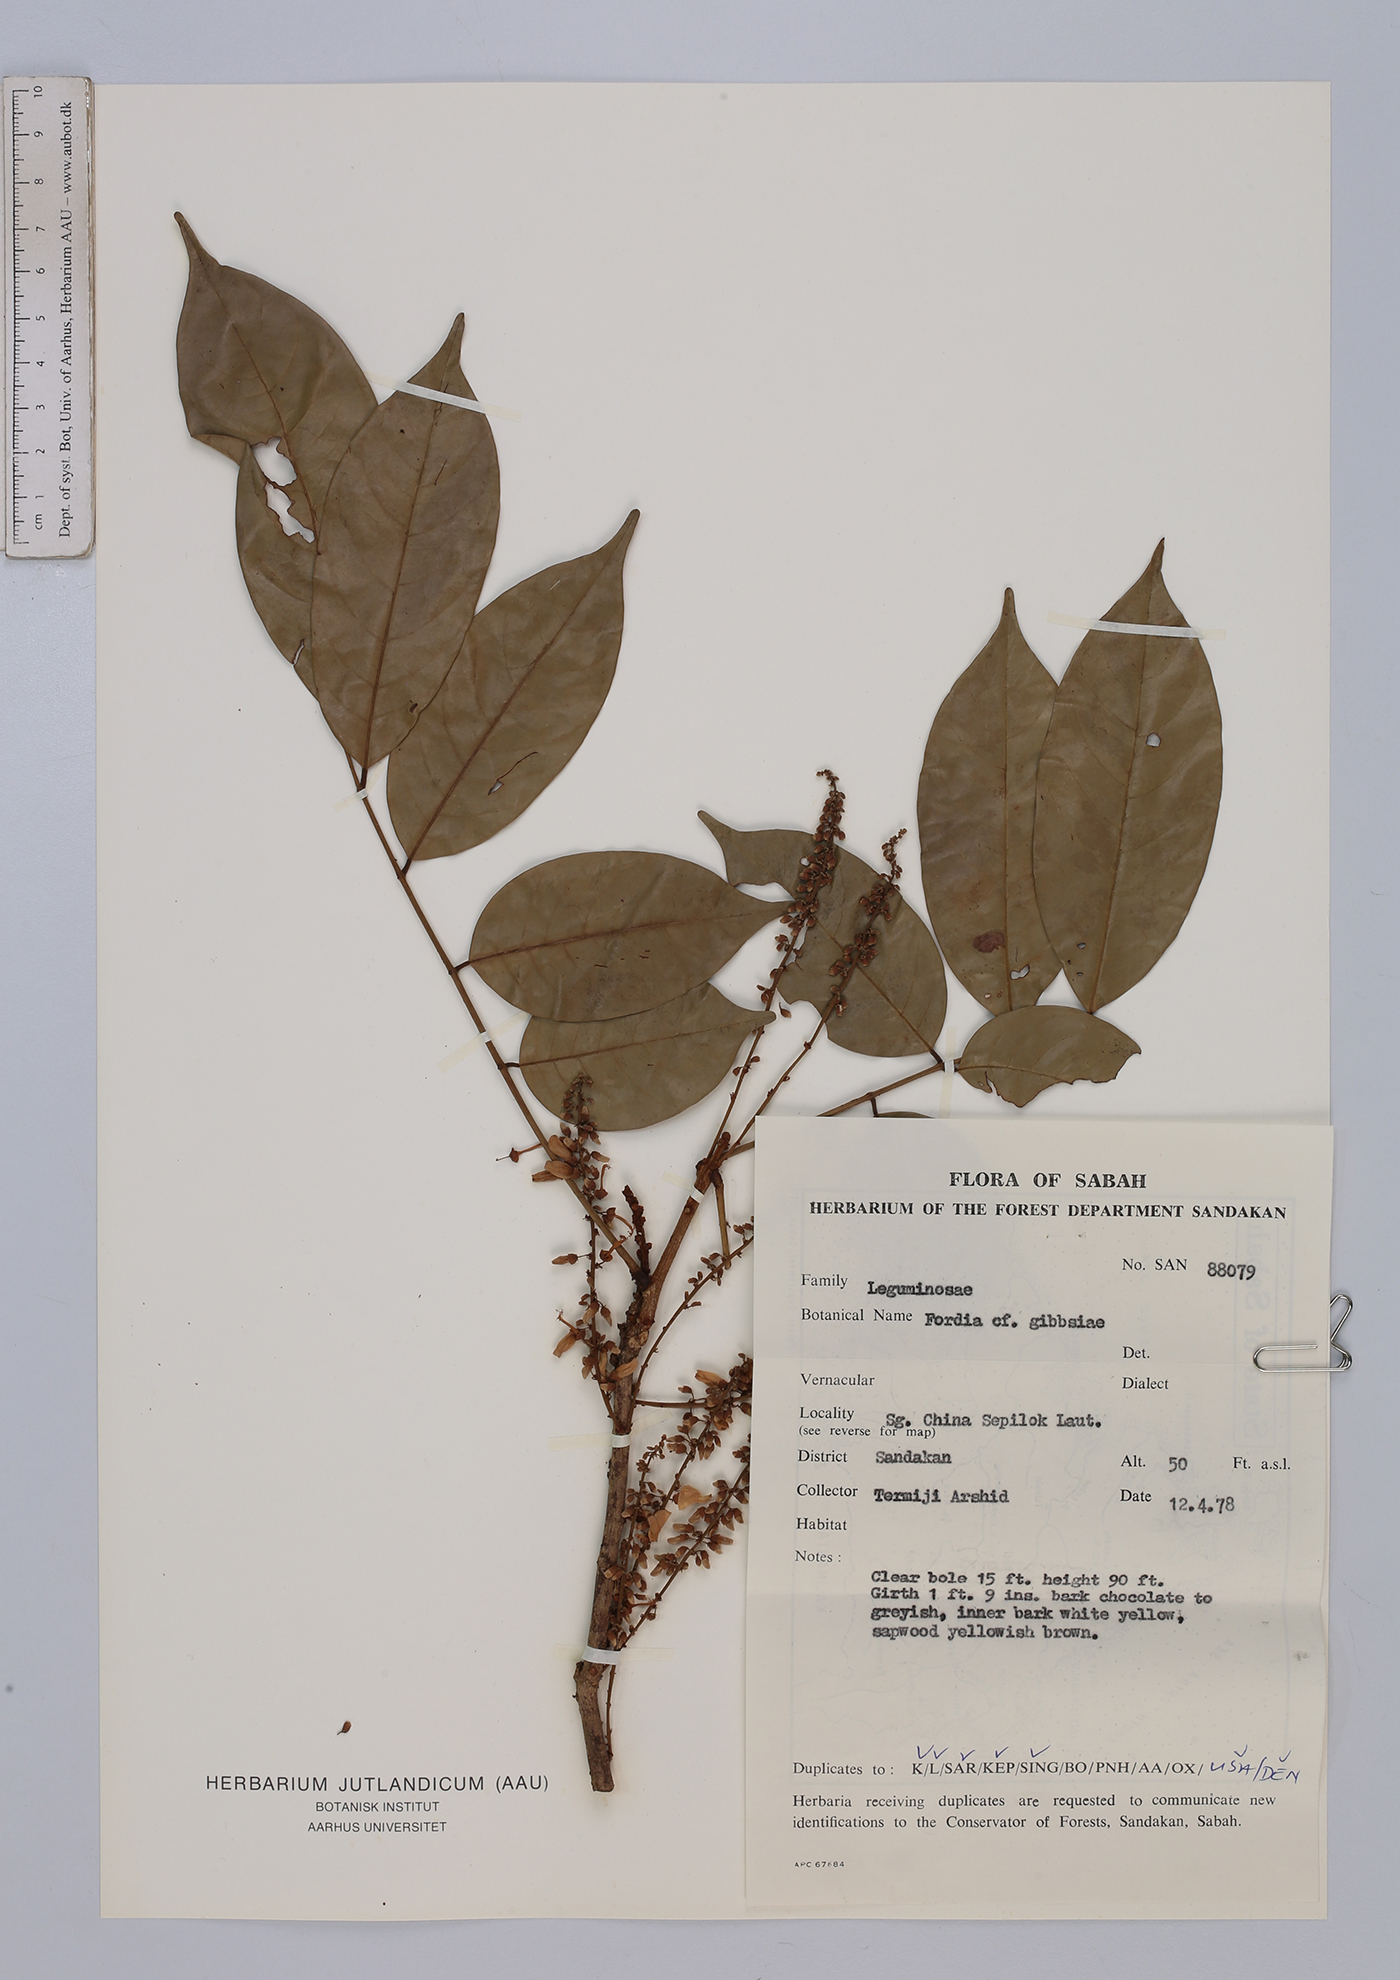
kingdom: Plantae
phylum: Tracheophyta
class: Magnoliopsida
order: Fabales
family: Fabaceae
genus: Fordia
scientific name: Fordia splendidissima
